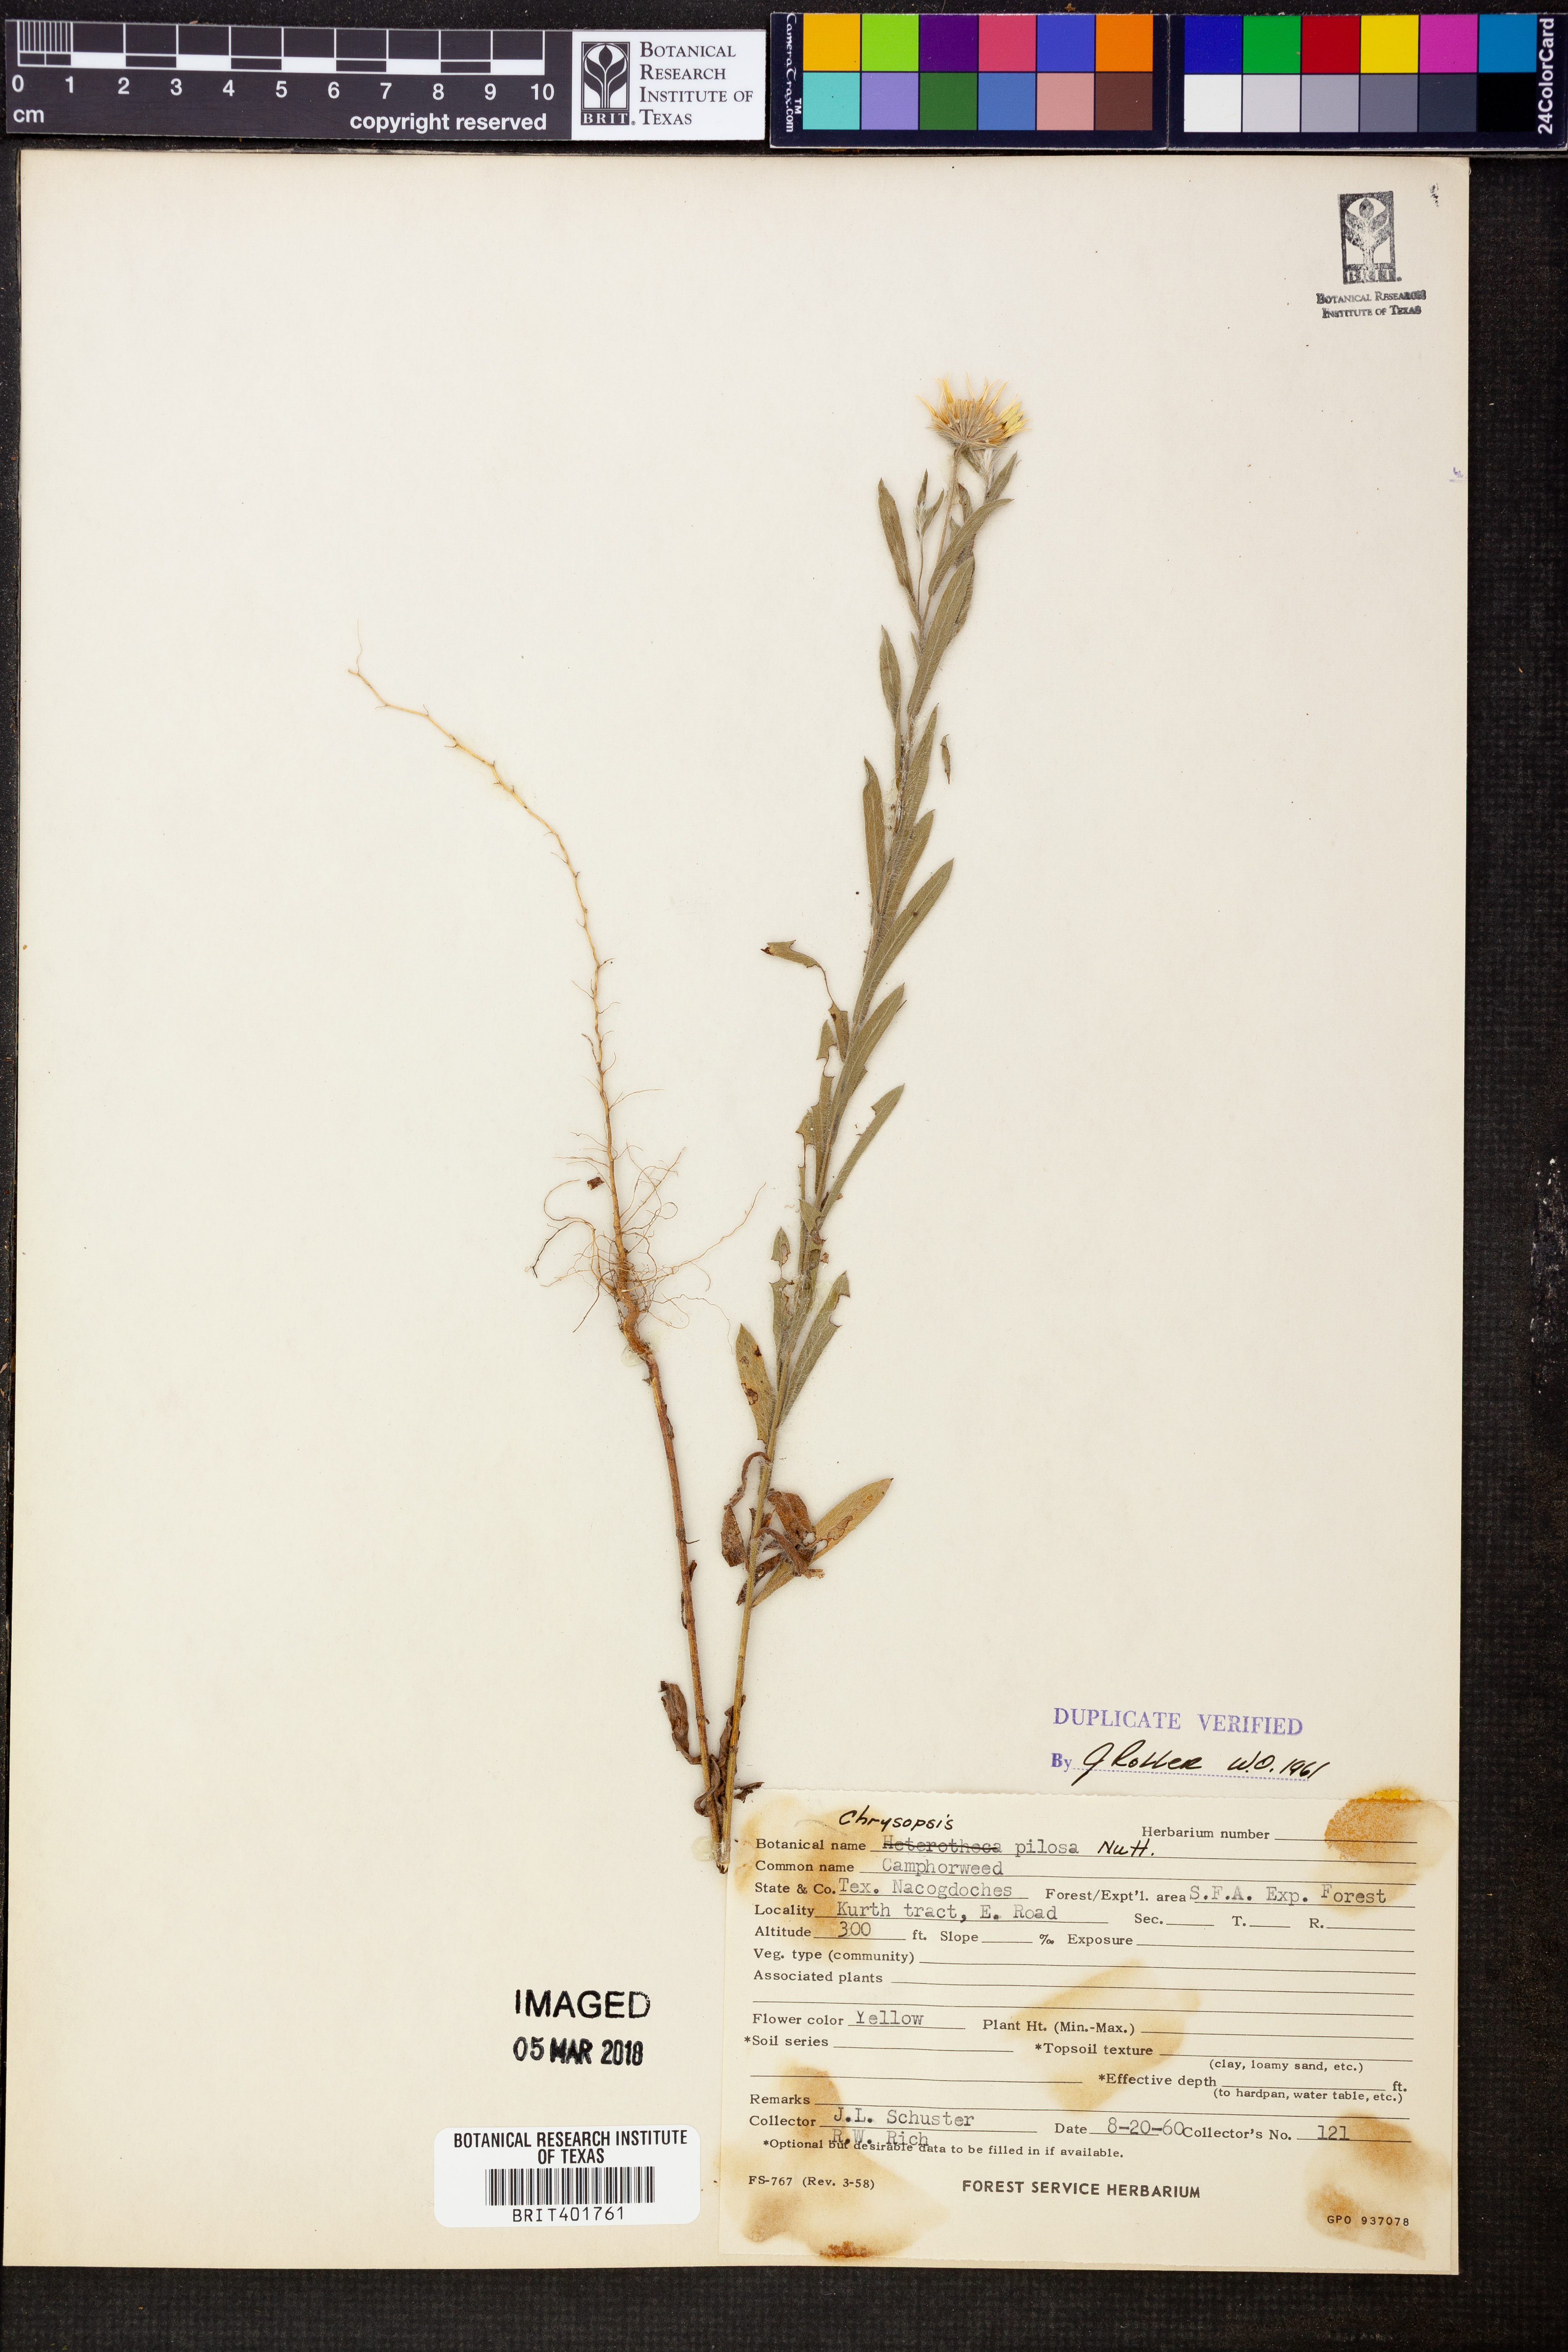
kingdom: Plantae
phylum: Tracheophyta
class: Magnoliopsida
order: Asterales
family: Asteraceae
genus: Bradburia
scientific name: Bradburia pilosa
